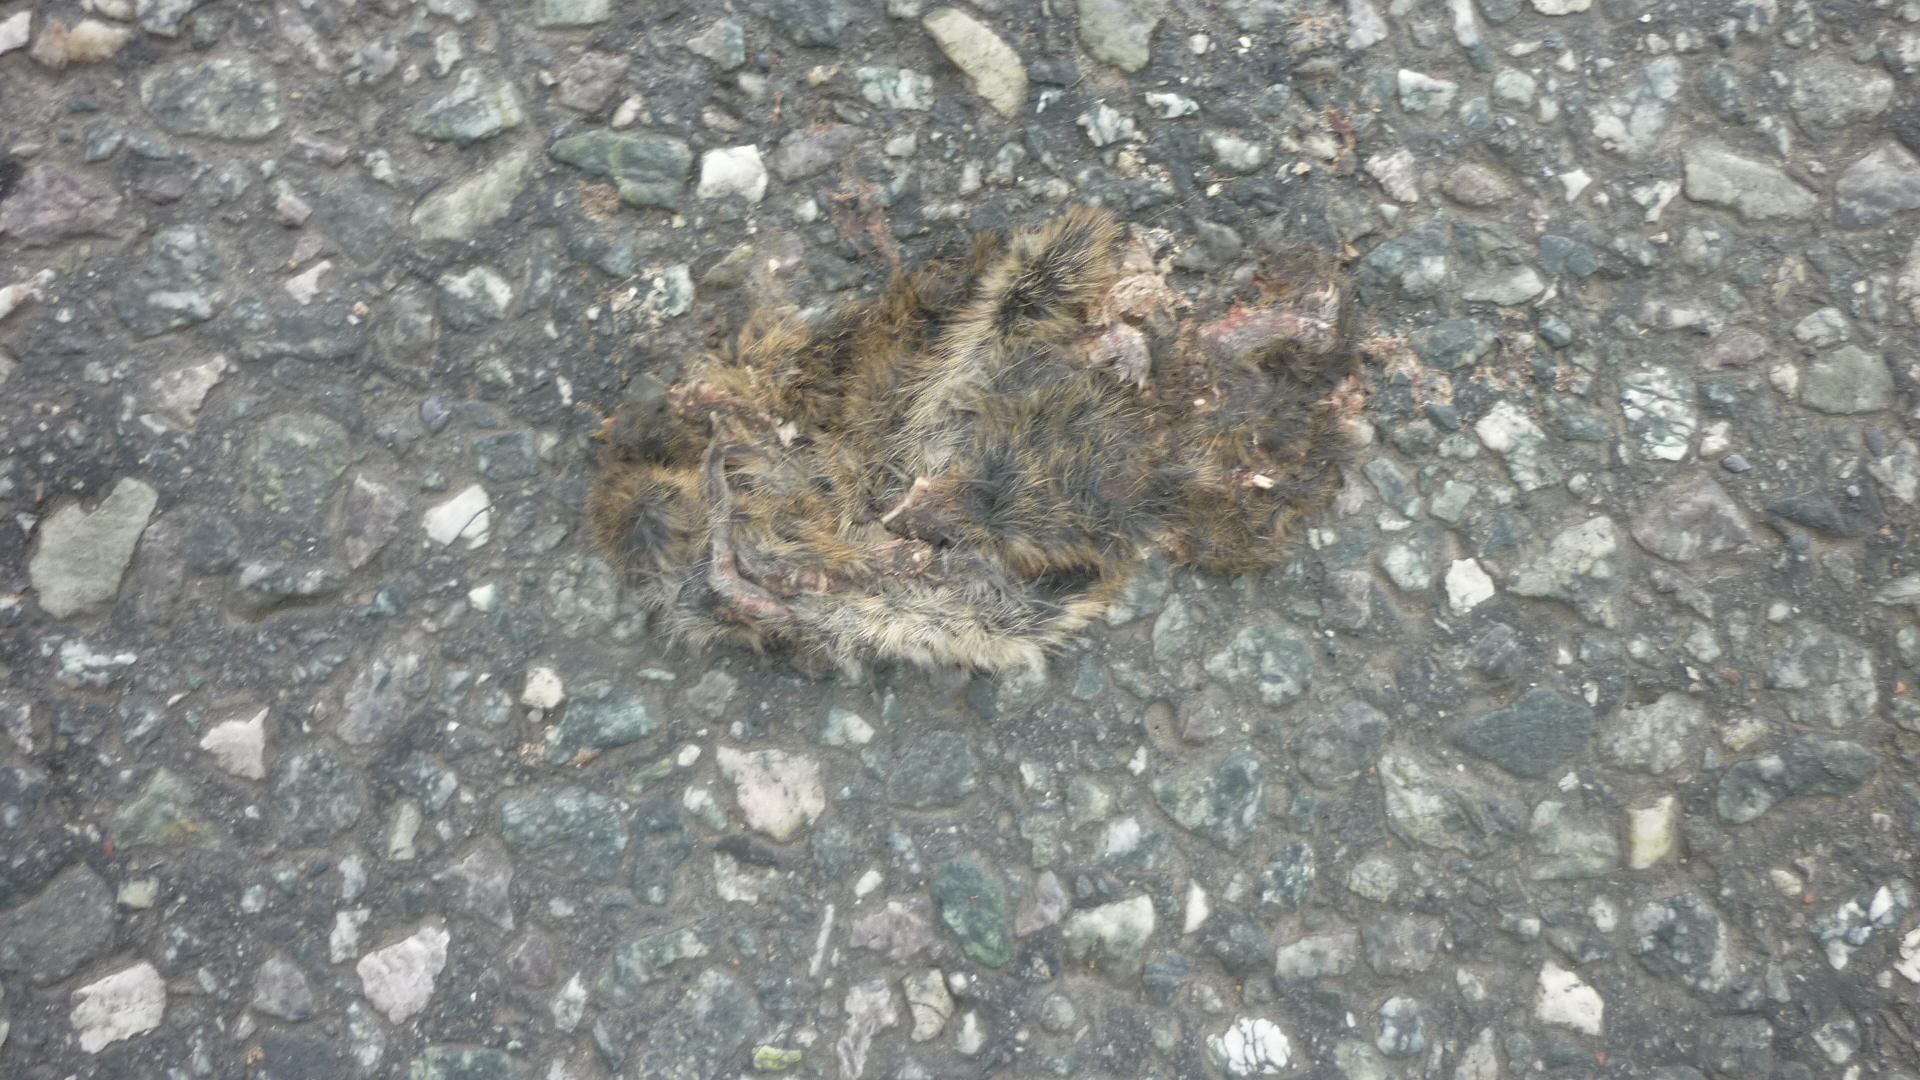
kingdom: Animalia
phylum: Chordata
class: Mammalia
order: Rodentia
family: Cricetidae
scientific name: Cricetidae
